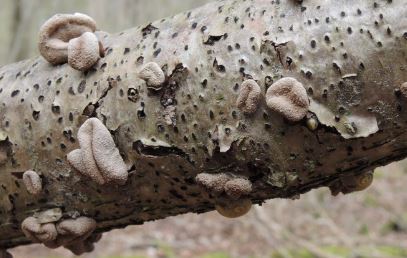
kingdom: Fungi
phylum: Ascomycota
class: Leotiomycetes
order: Helotiales
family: Cenangiaceae
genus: Encoelia
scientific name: Encoelia furfuracea
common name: hassel-læderskive
